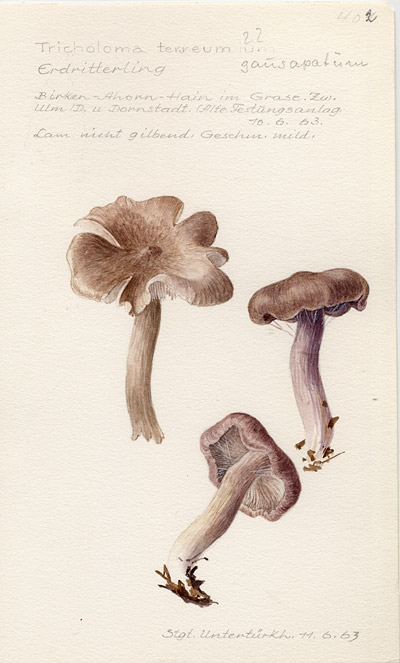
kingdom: Fungi
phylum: Basidiomycota
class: Agaricomycetes
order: Agaricales
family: Tricholomataceae
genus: Tricholoma
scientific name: Tricholoma terreum
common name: Grey knight
